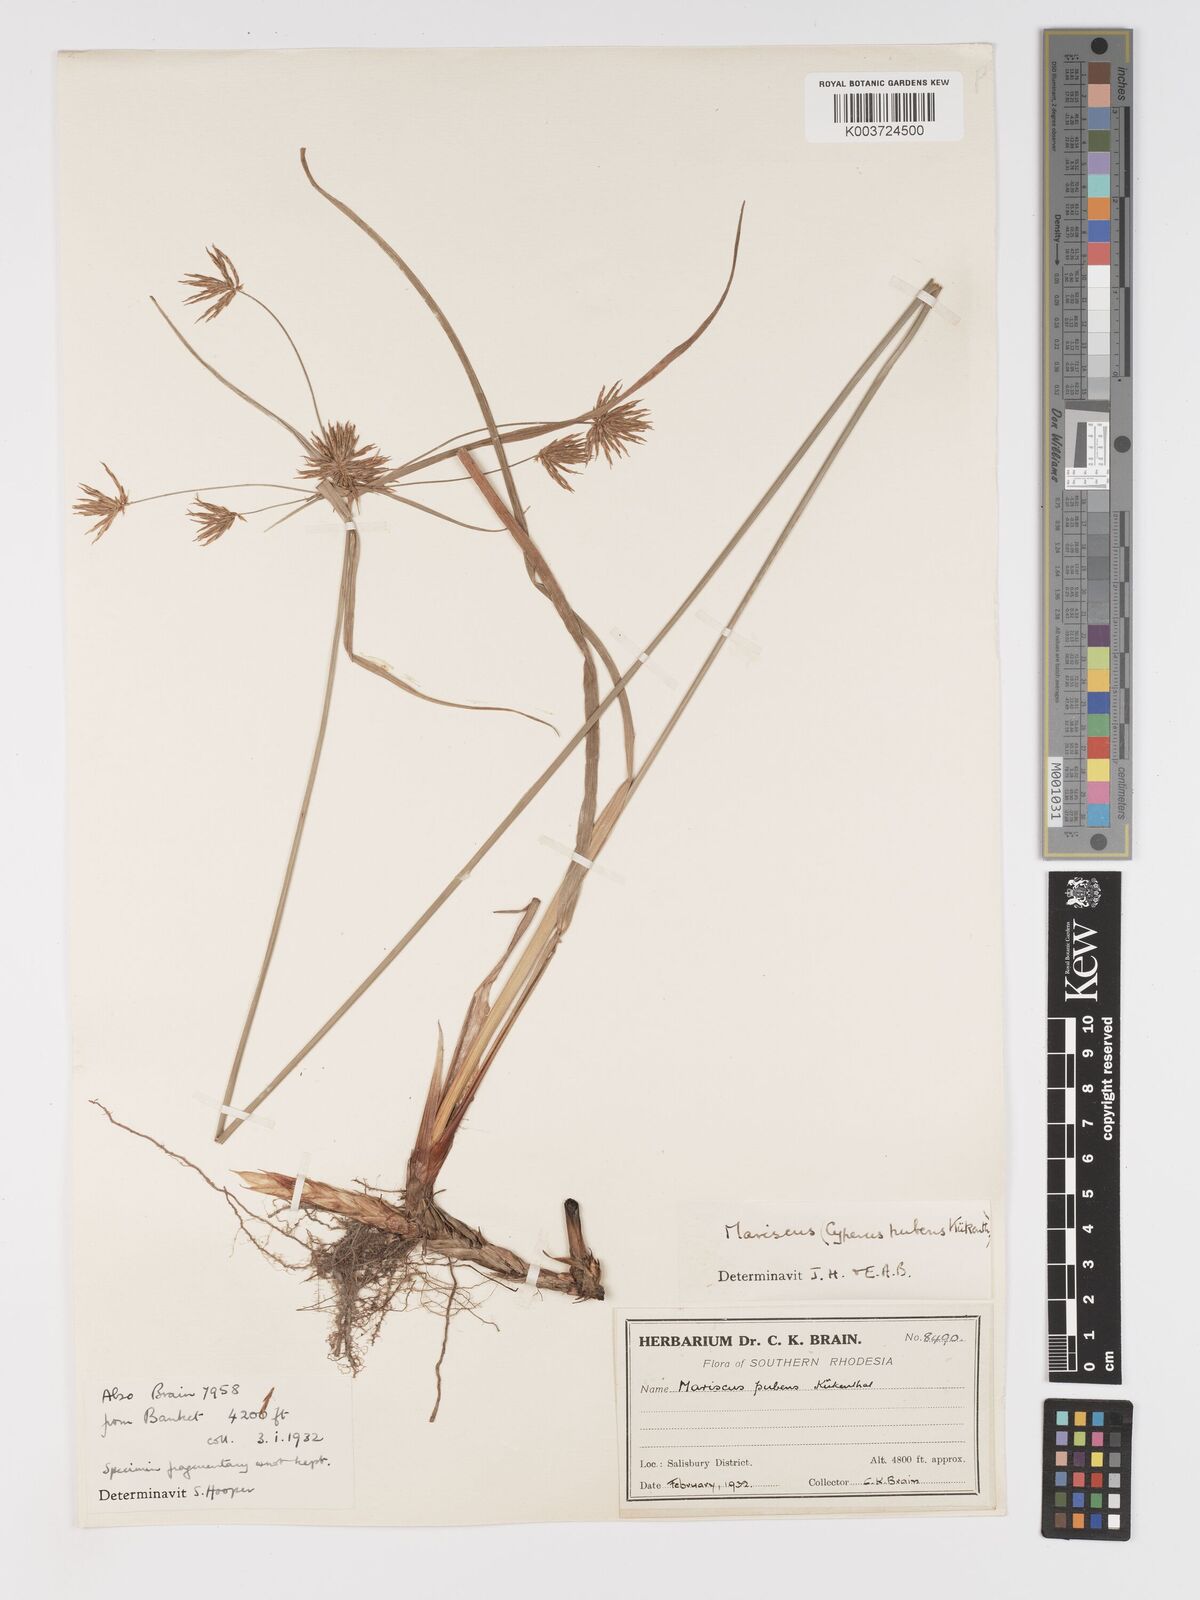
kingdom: Plantae
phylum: Tracheophyta
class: Liliopsida
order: Poales
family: Cyperaceae
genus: Cyperus
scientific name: Cyperus pubens
